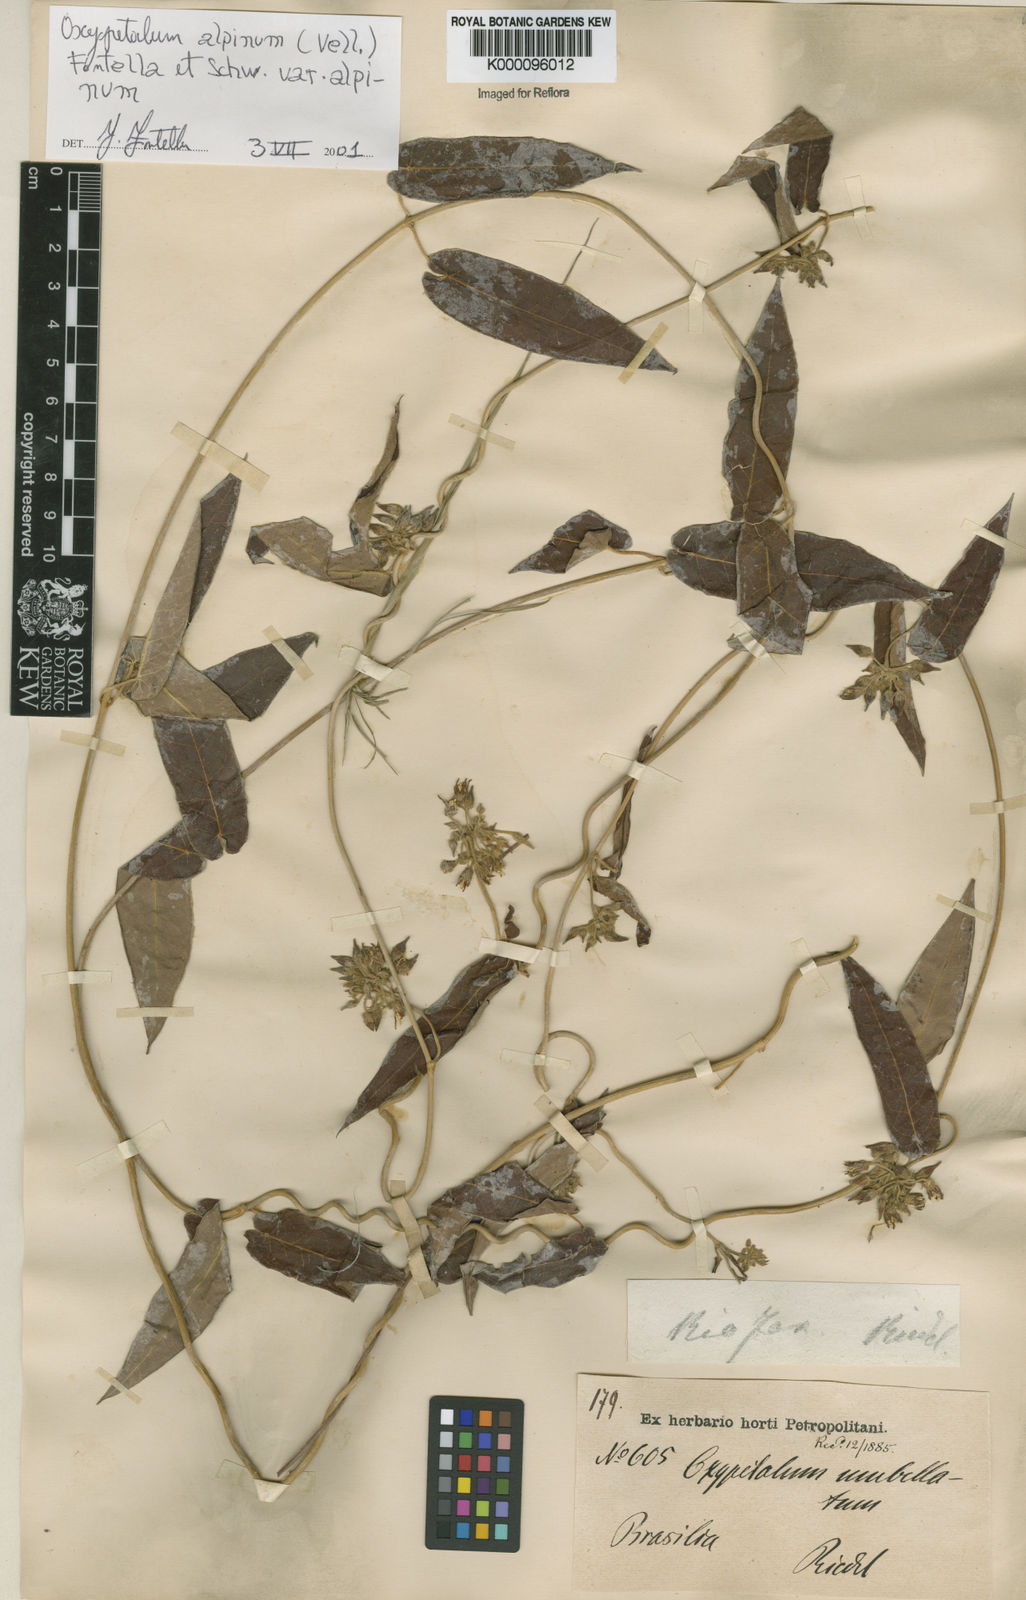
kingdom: Plantae
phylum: Tracheophyta
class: Magnoliopsida
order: Gentianales
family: Apocynaceae
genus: Oxypetalum
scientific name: Oxypetalum alpinum
